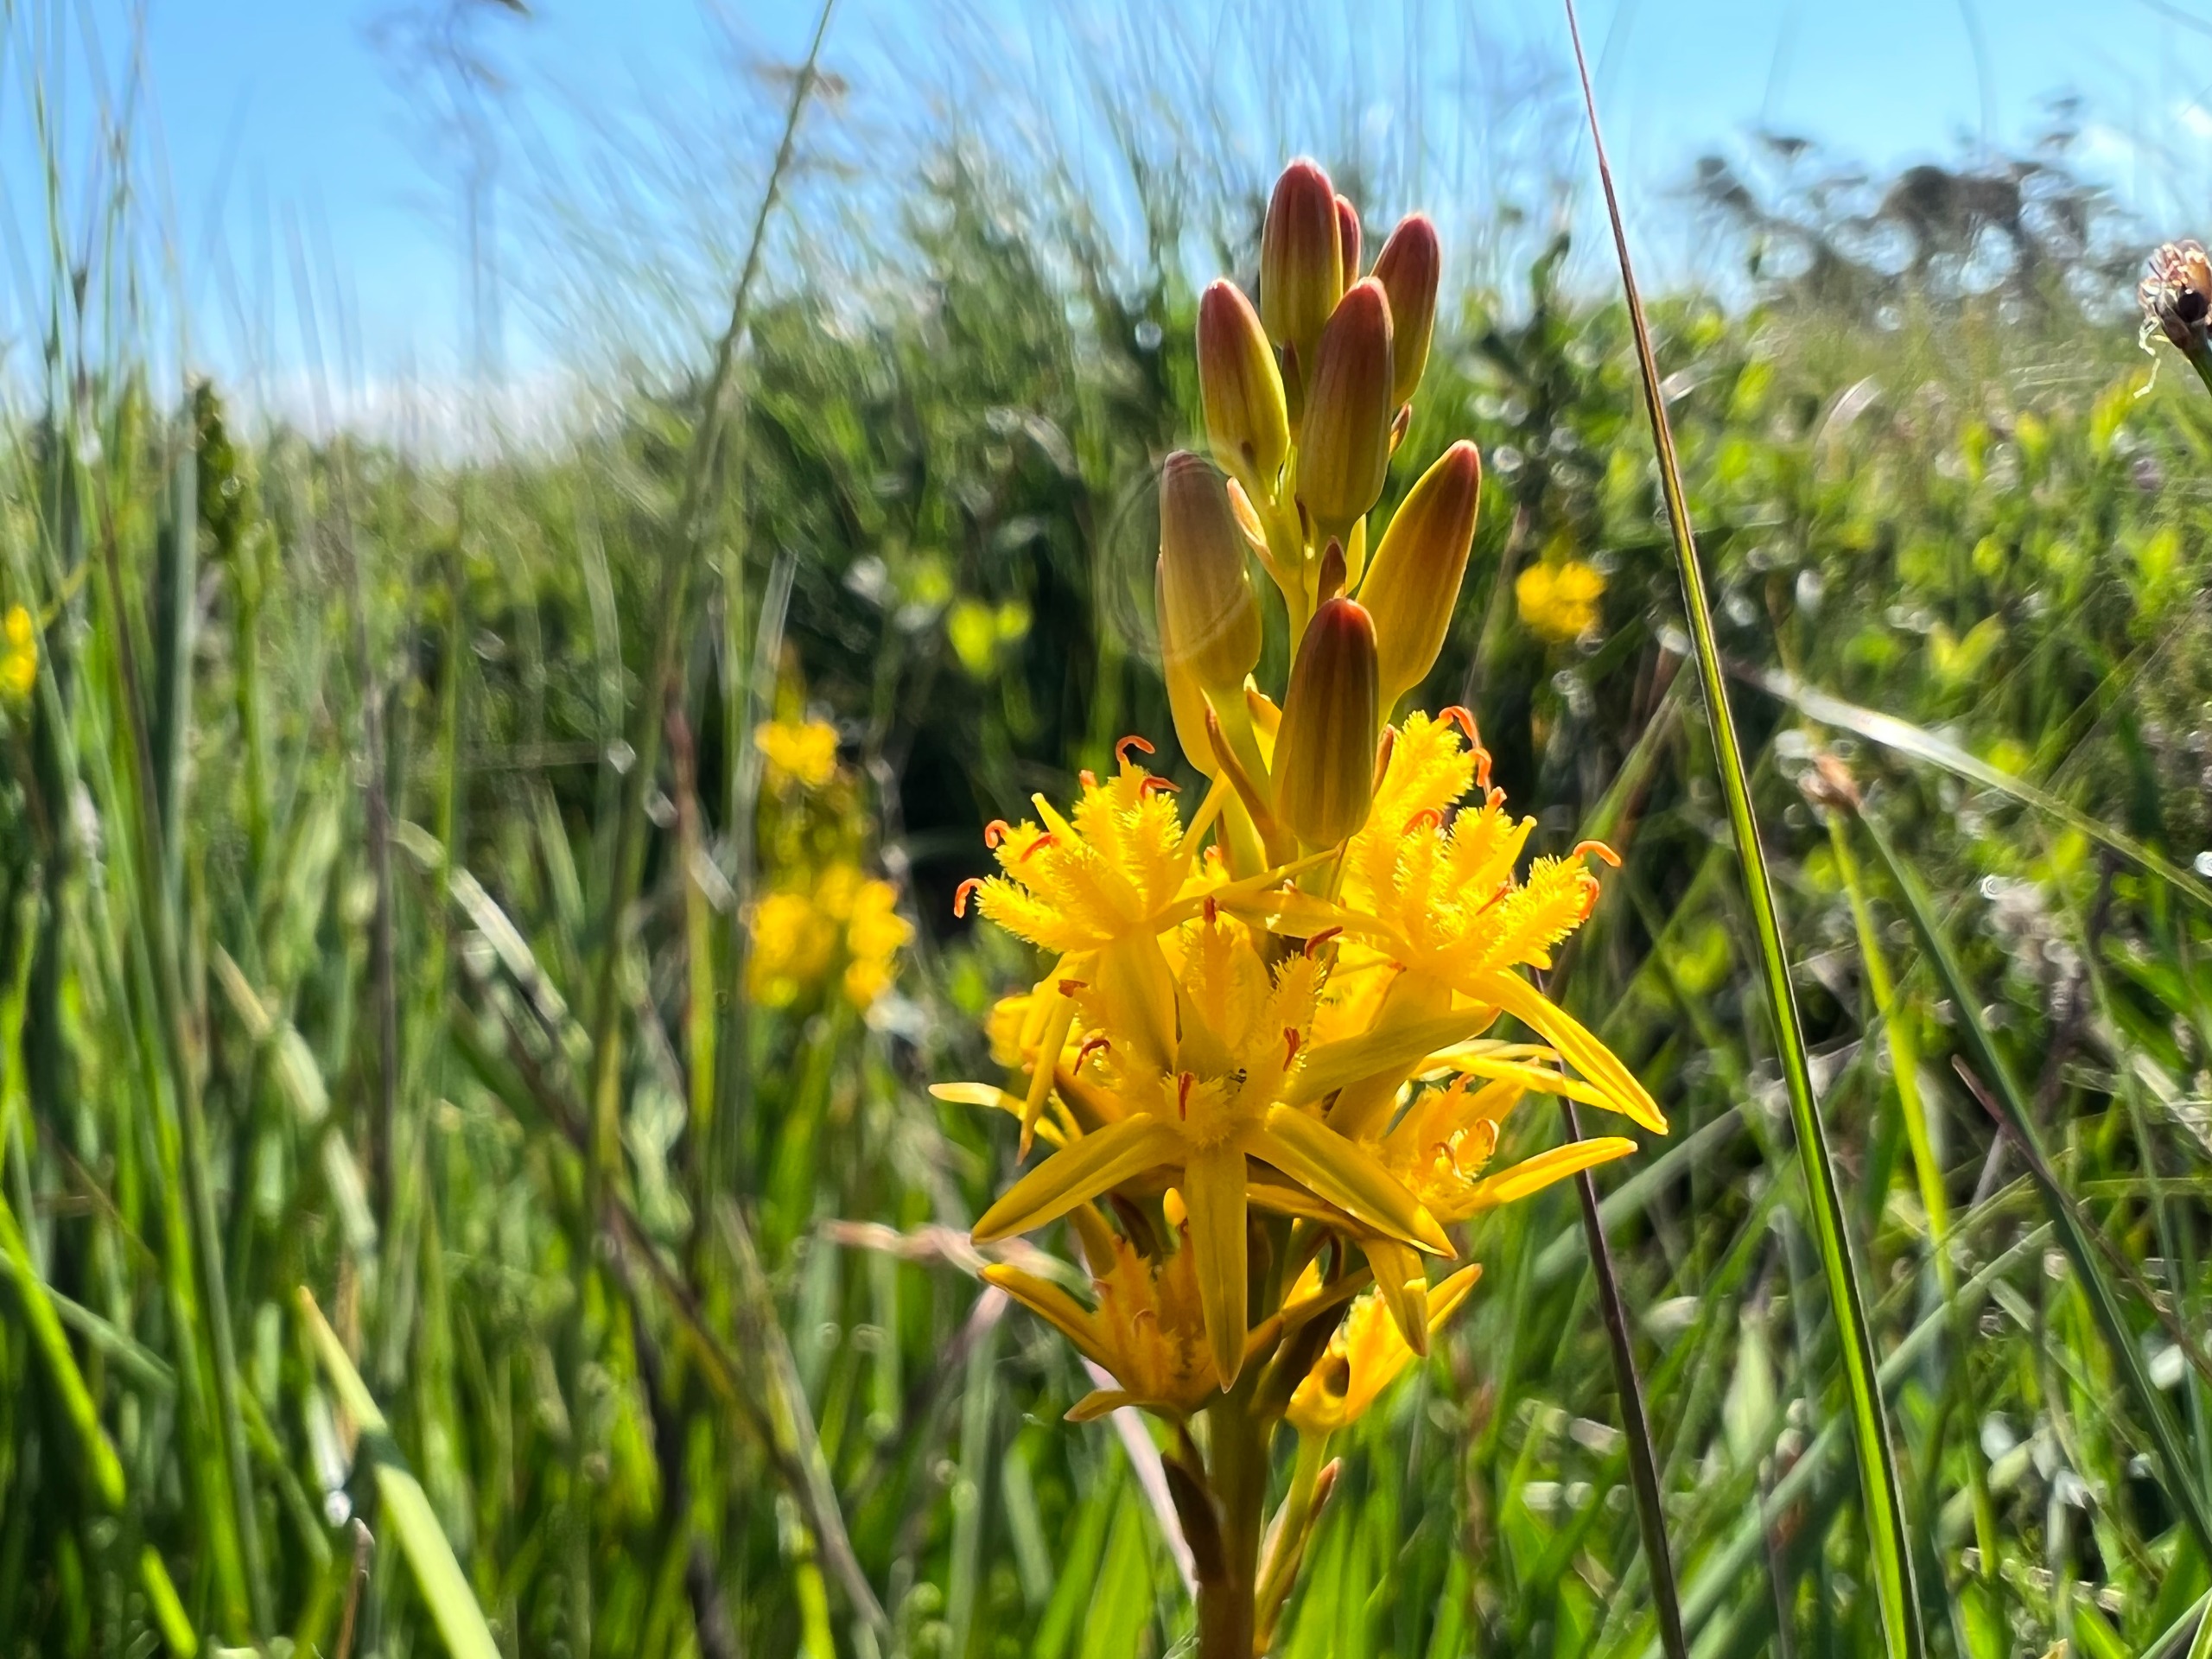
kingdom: Plantae
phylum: Tracheophyta
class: Liliopsida
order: Dioscoreales
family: Nartheciaceae
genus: Narthecium
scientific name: Narthecium ossifragum
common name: Benbræk
